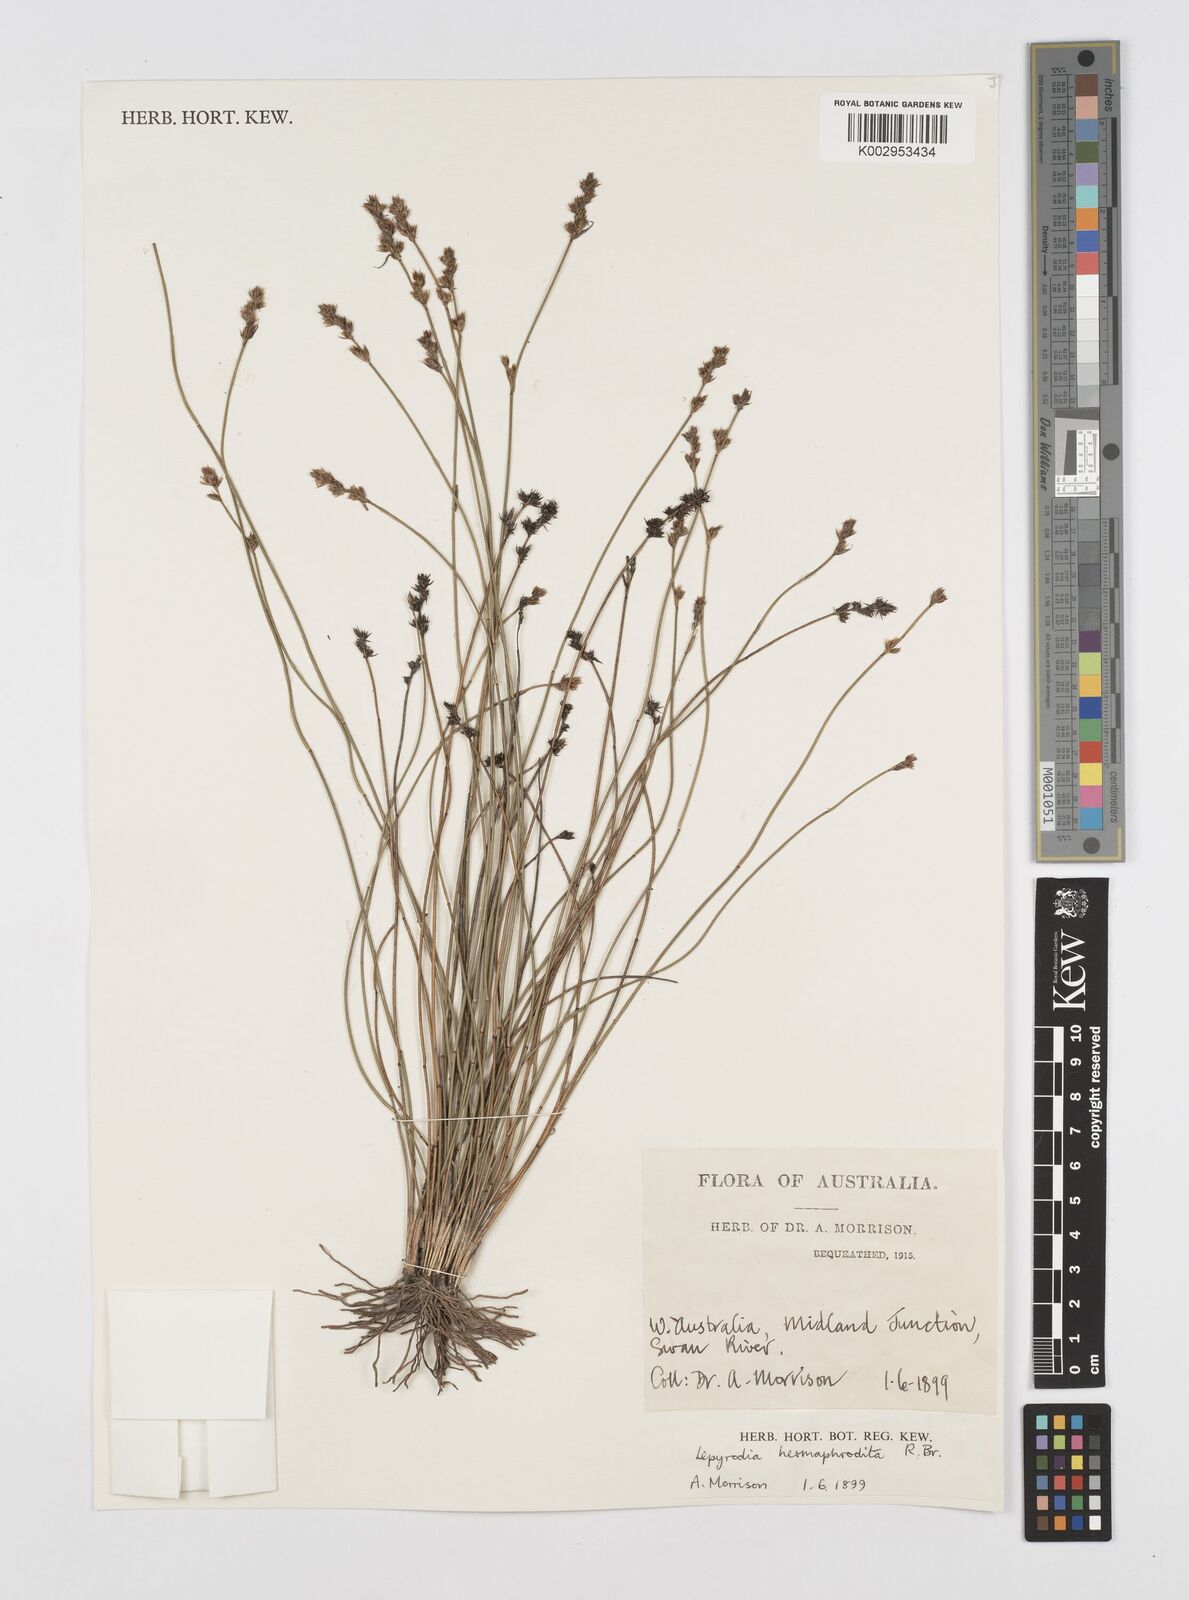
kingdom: Plantae
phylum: Tracheophyta
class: Liliopsida
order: Poales
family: Restionaceae
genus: Lepyrodia
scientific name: Lepyrodia hermaphrodita
